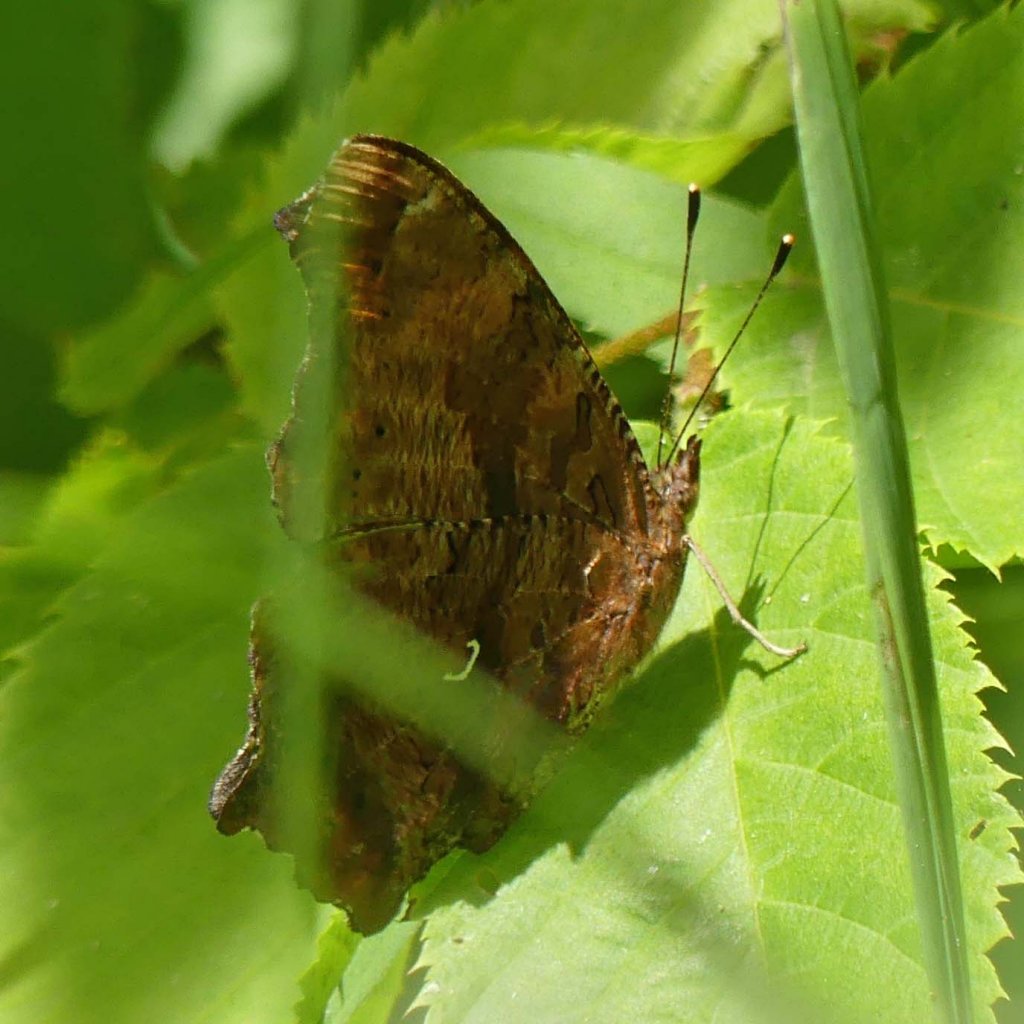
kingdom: Animalia
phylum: Arthropoda
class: Insecta
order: Lepidoptera
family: Nymphalidae
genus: Polygonia
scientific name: Polygonia comma
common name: Eastern Comma
